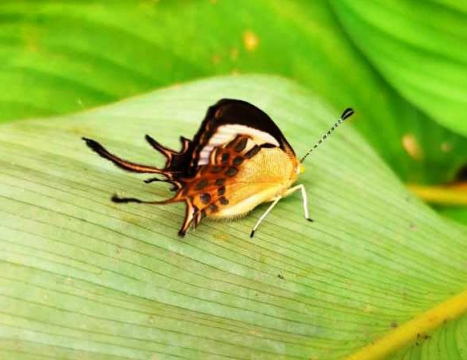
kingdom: Animalia
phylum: Arthropoda
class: Insecta
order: Lepidoptera
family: Riodinidae
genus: Helicopis
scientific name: Helicopis cupido
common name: Spangled Cupid
